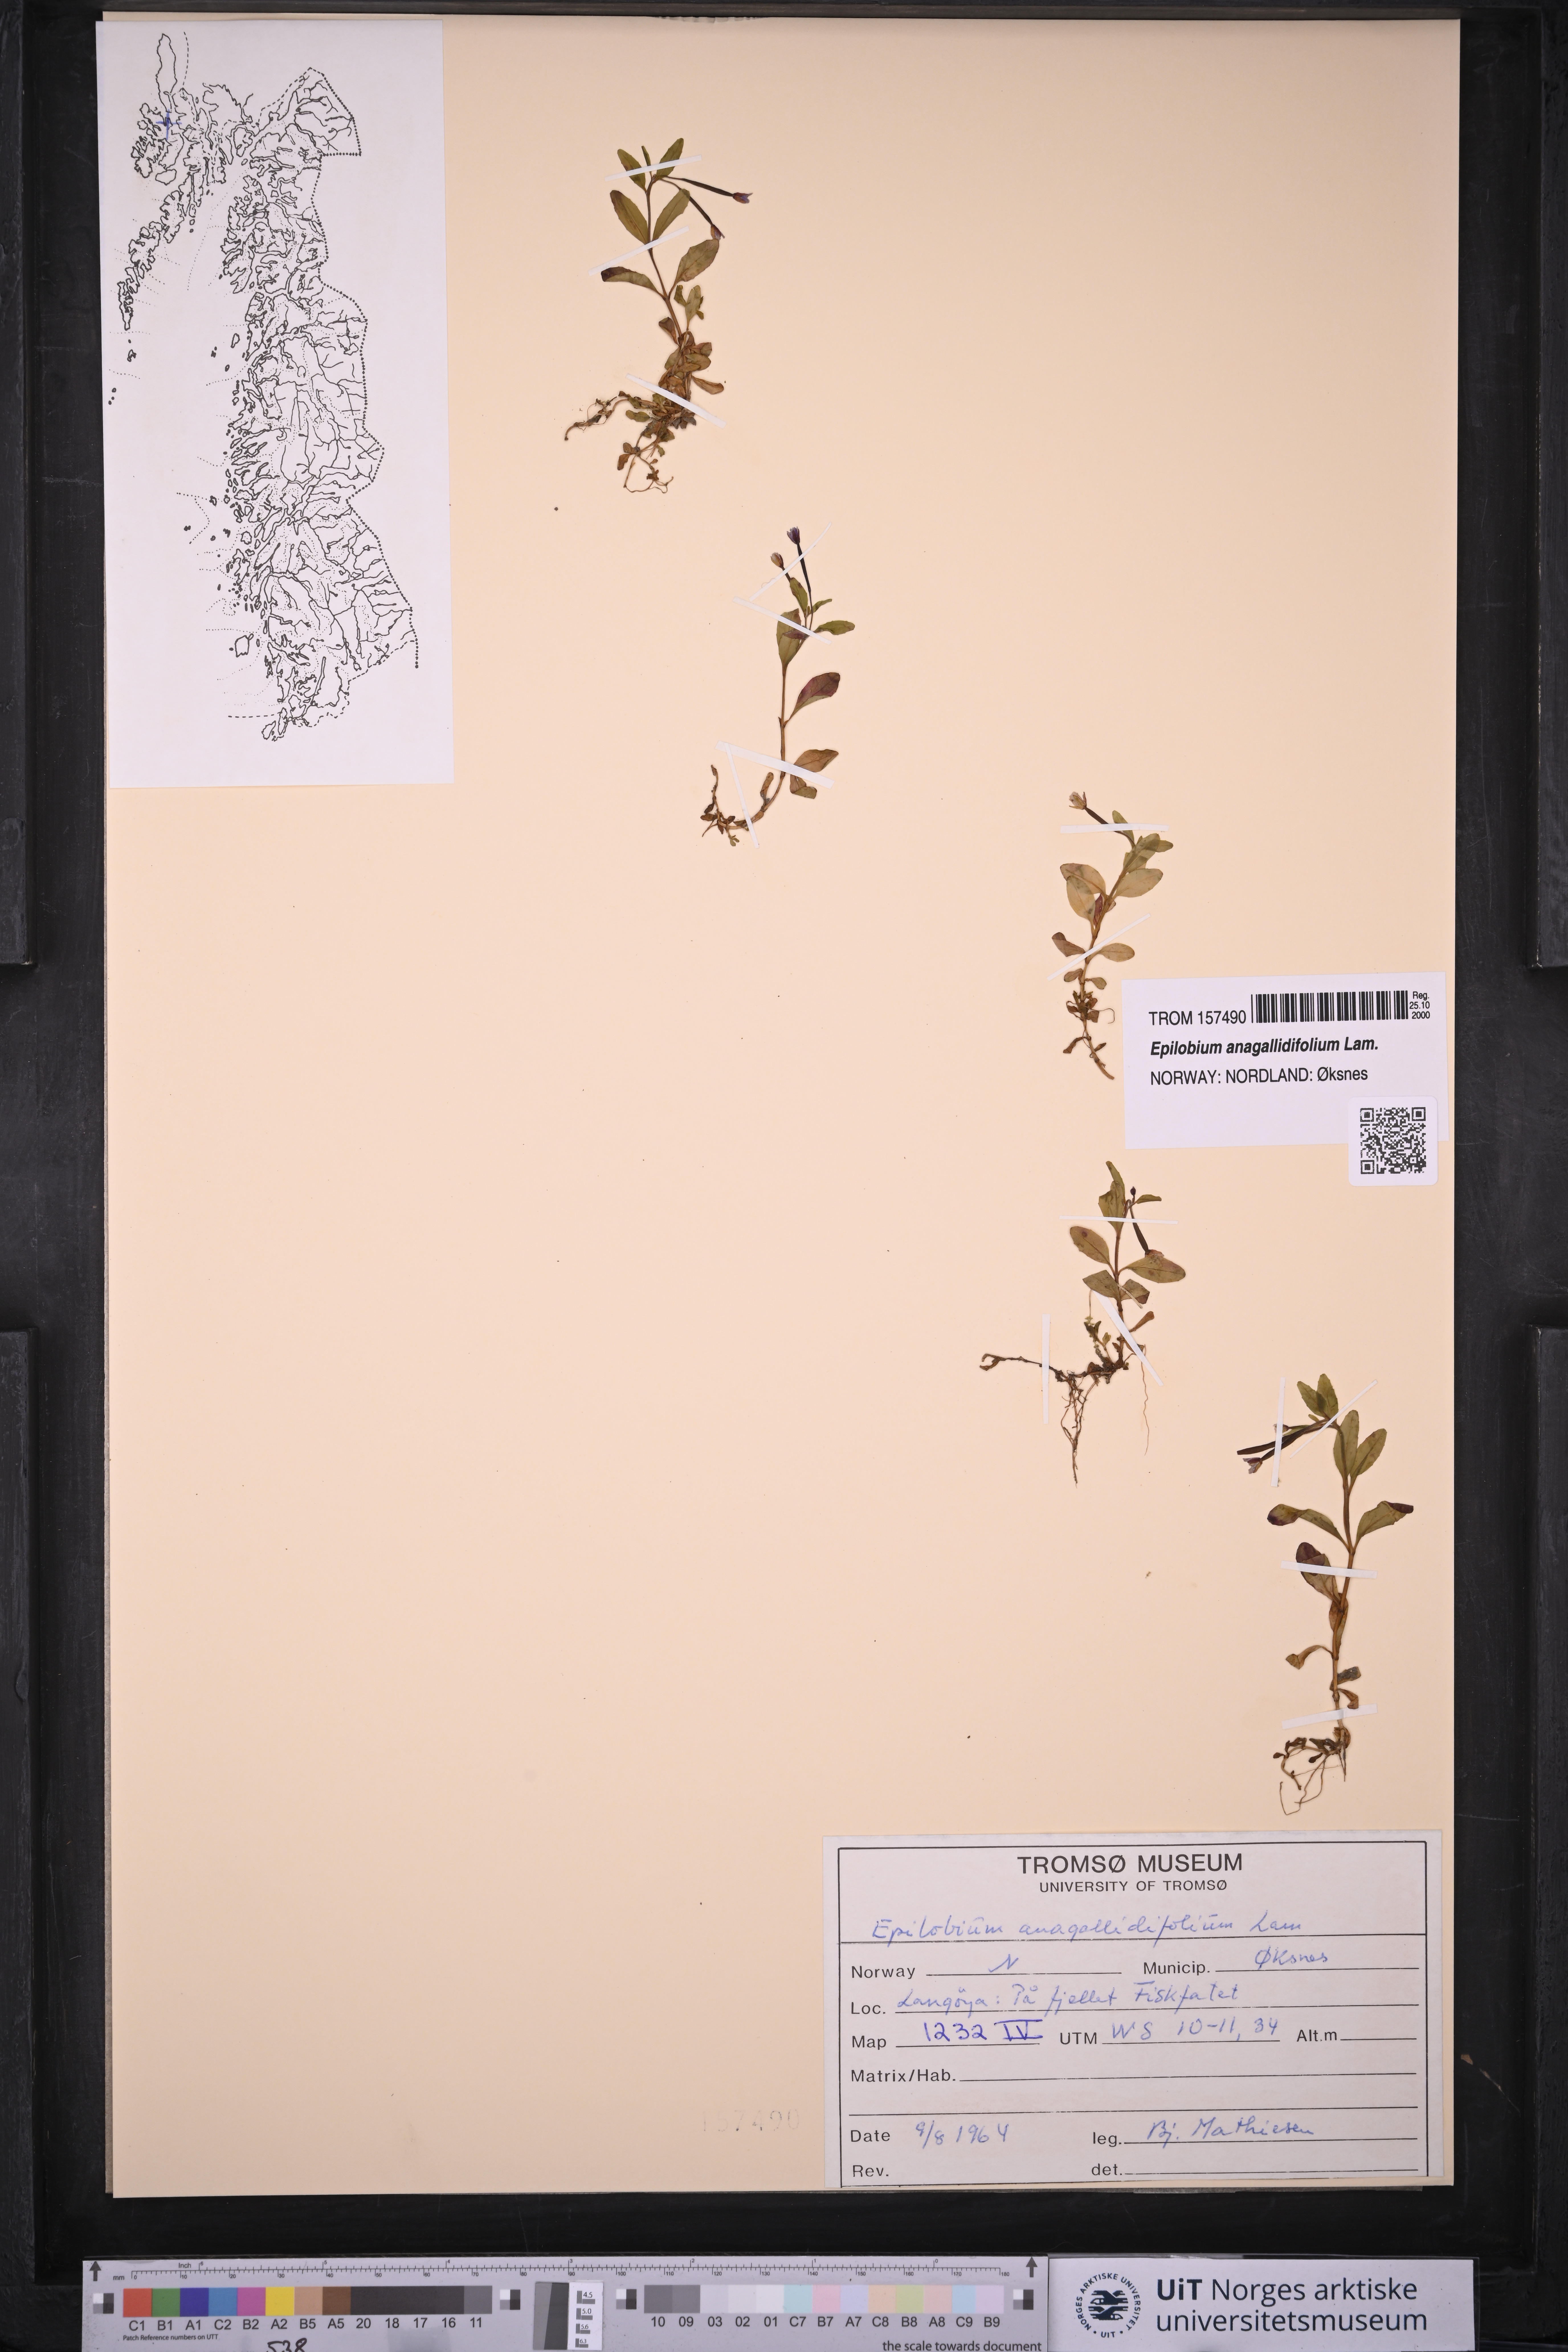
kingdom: Plantae
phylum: Tracheophyta
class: Magnoliopsida
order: Myrtales
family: Onagraceae
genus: Epilobium
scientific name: Epilobium anagallidifolium
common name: Alpine willowherb
